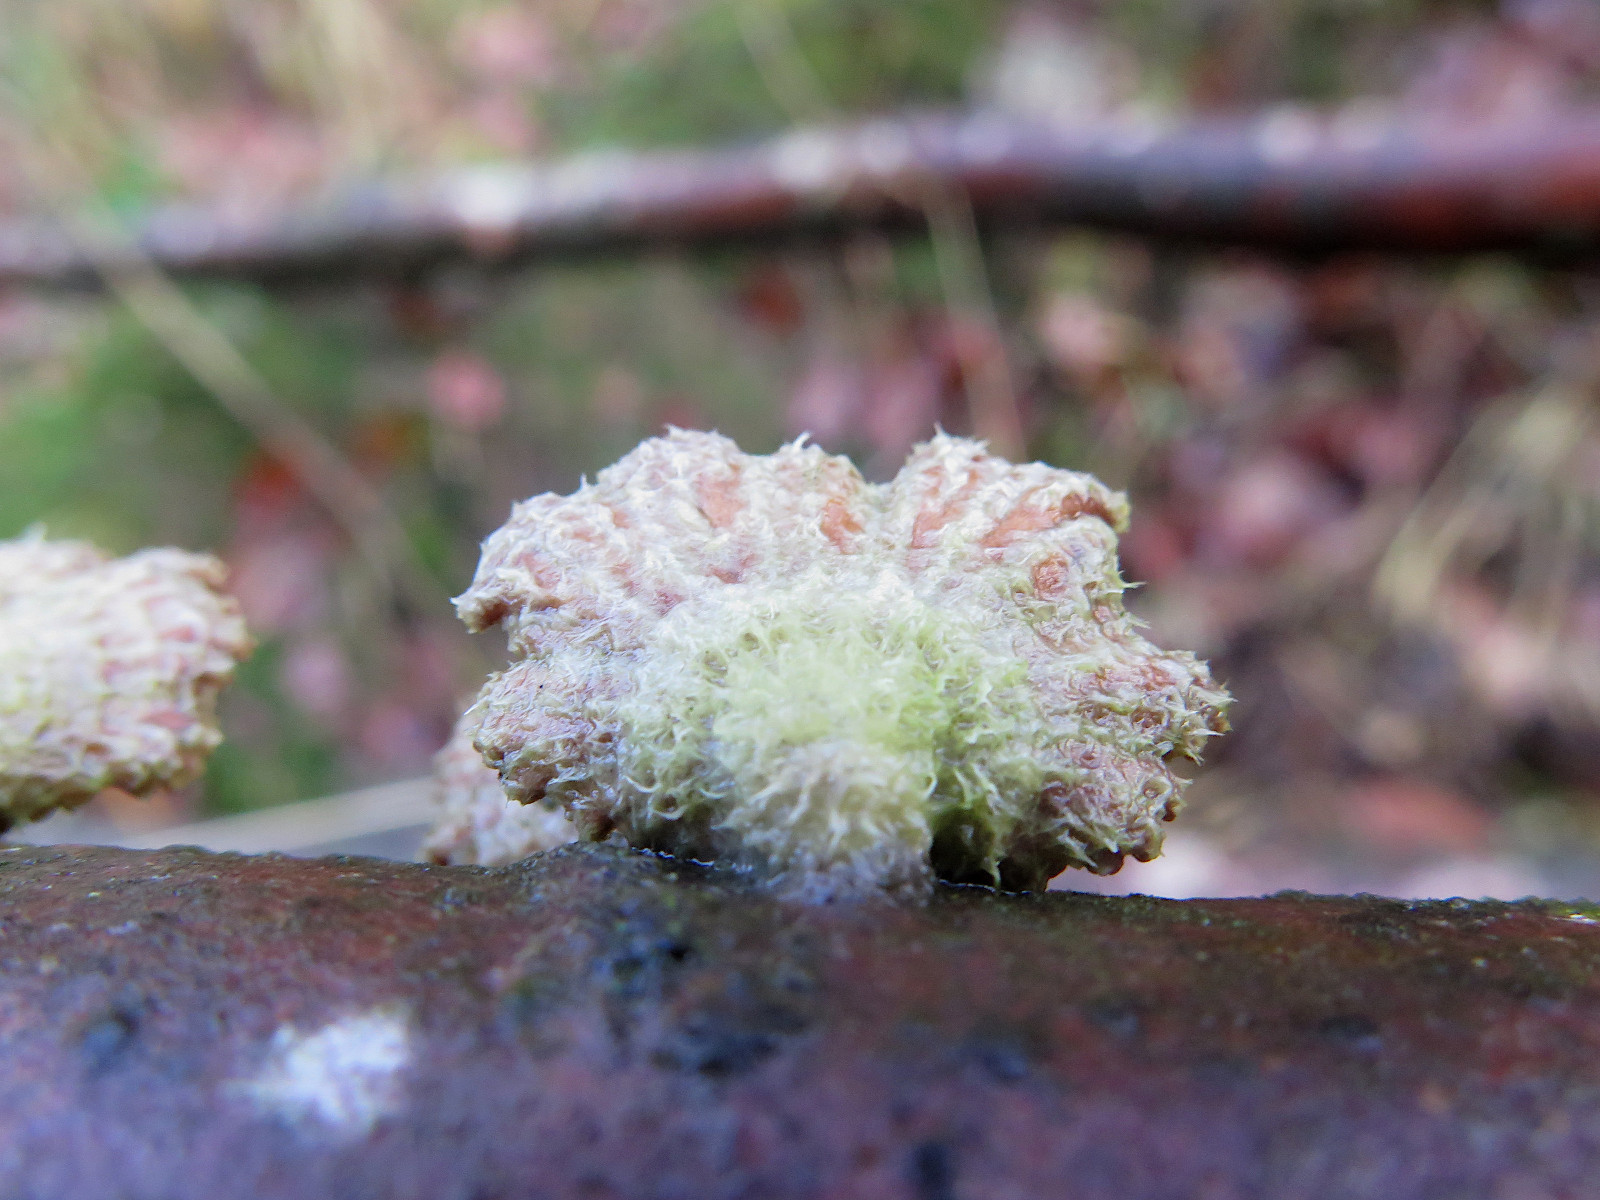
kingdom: Fungi
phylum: Basidiomycota
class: Agaricomycetes
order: Agaricales
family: Schizophyllaceae
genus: Schizophyllum
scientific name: Schizophyllum commune
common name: kløvblad
